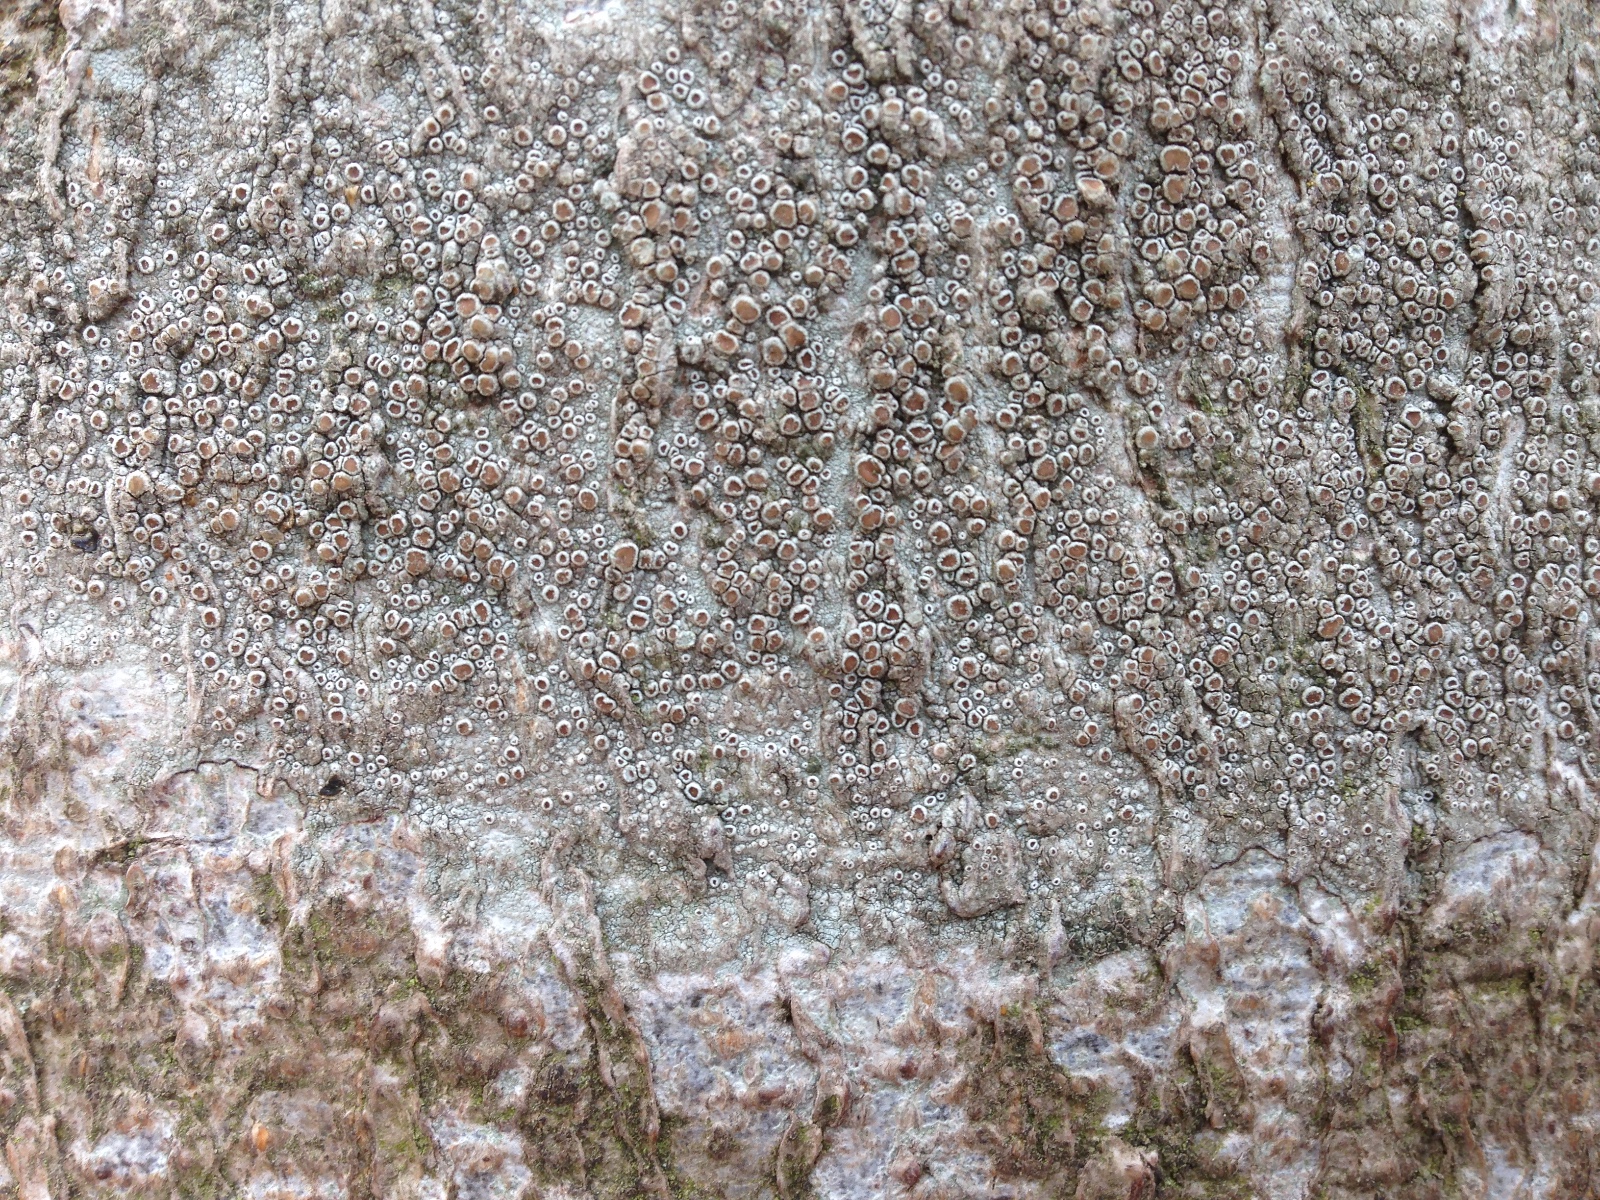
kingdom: Fungi
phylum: Ascomycota
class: Lecanoromycetes
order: Lecanorales
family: Lecanoraceae
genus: Lecanora
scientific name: Lecanora chlarotera
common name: brun kantskivelav
